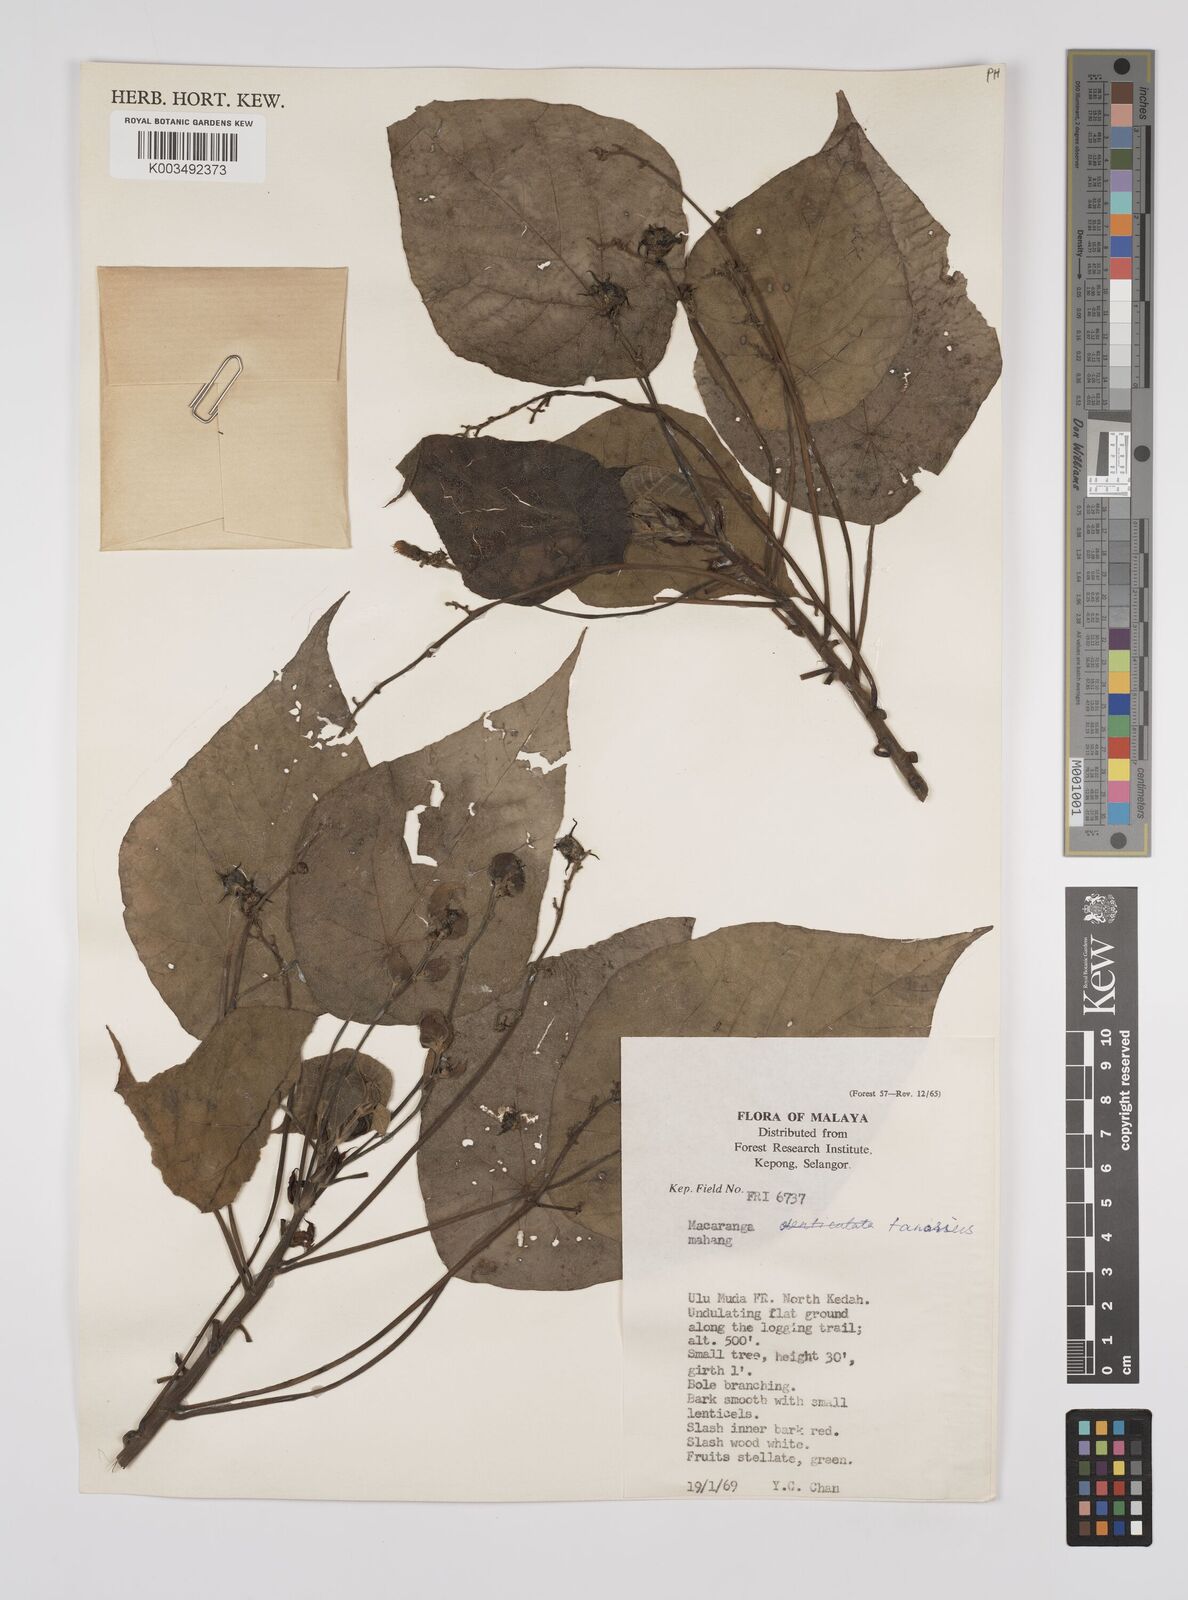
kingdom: Plantae
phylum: Tracheophyta
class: Magnoliopsida
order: Malpighiales
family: Euphorbiaceae
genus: Macaranga
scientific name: Macaranga tanarius
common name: Parasol leaf tree
